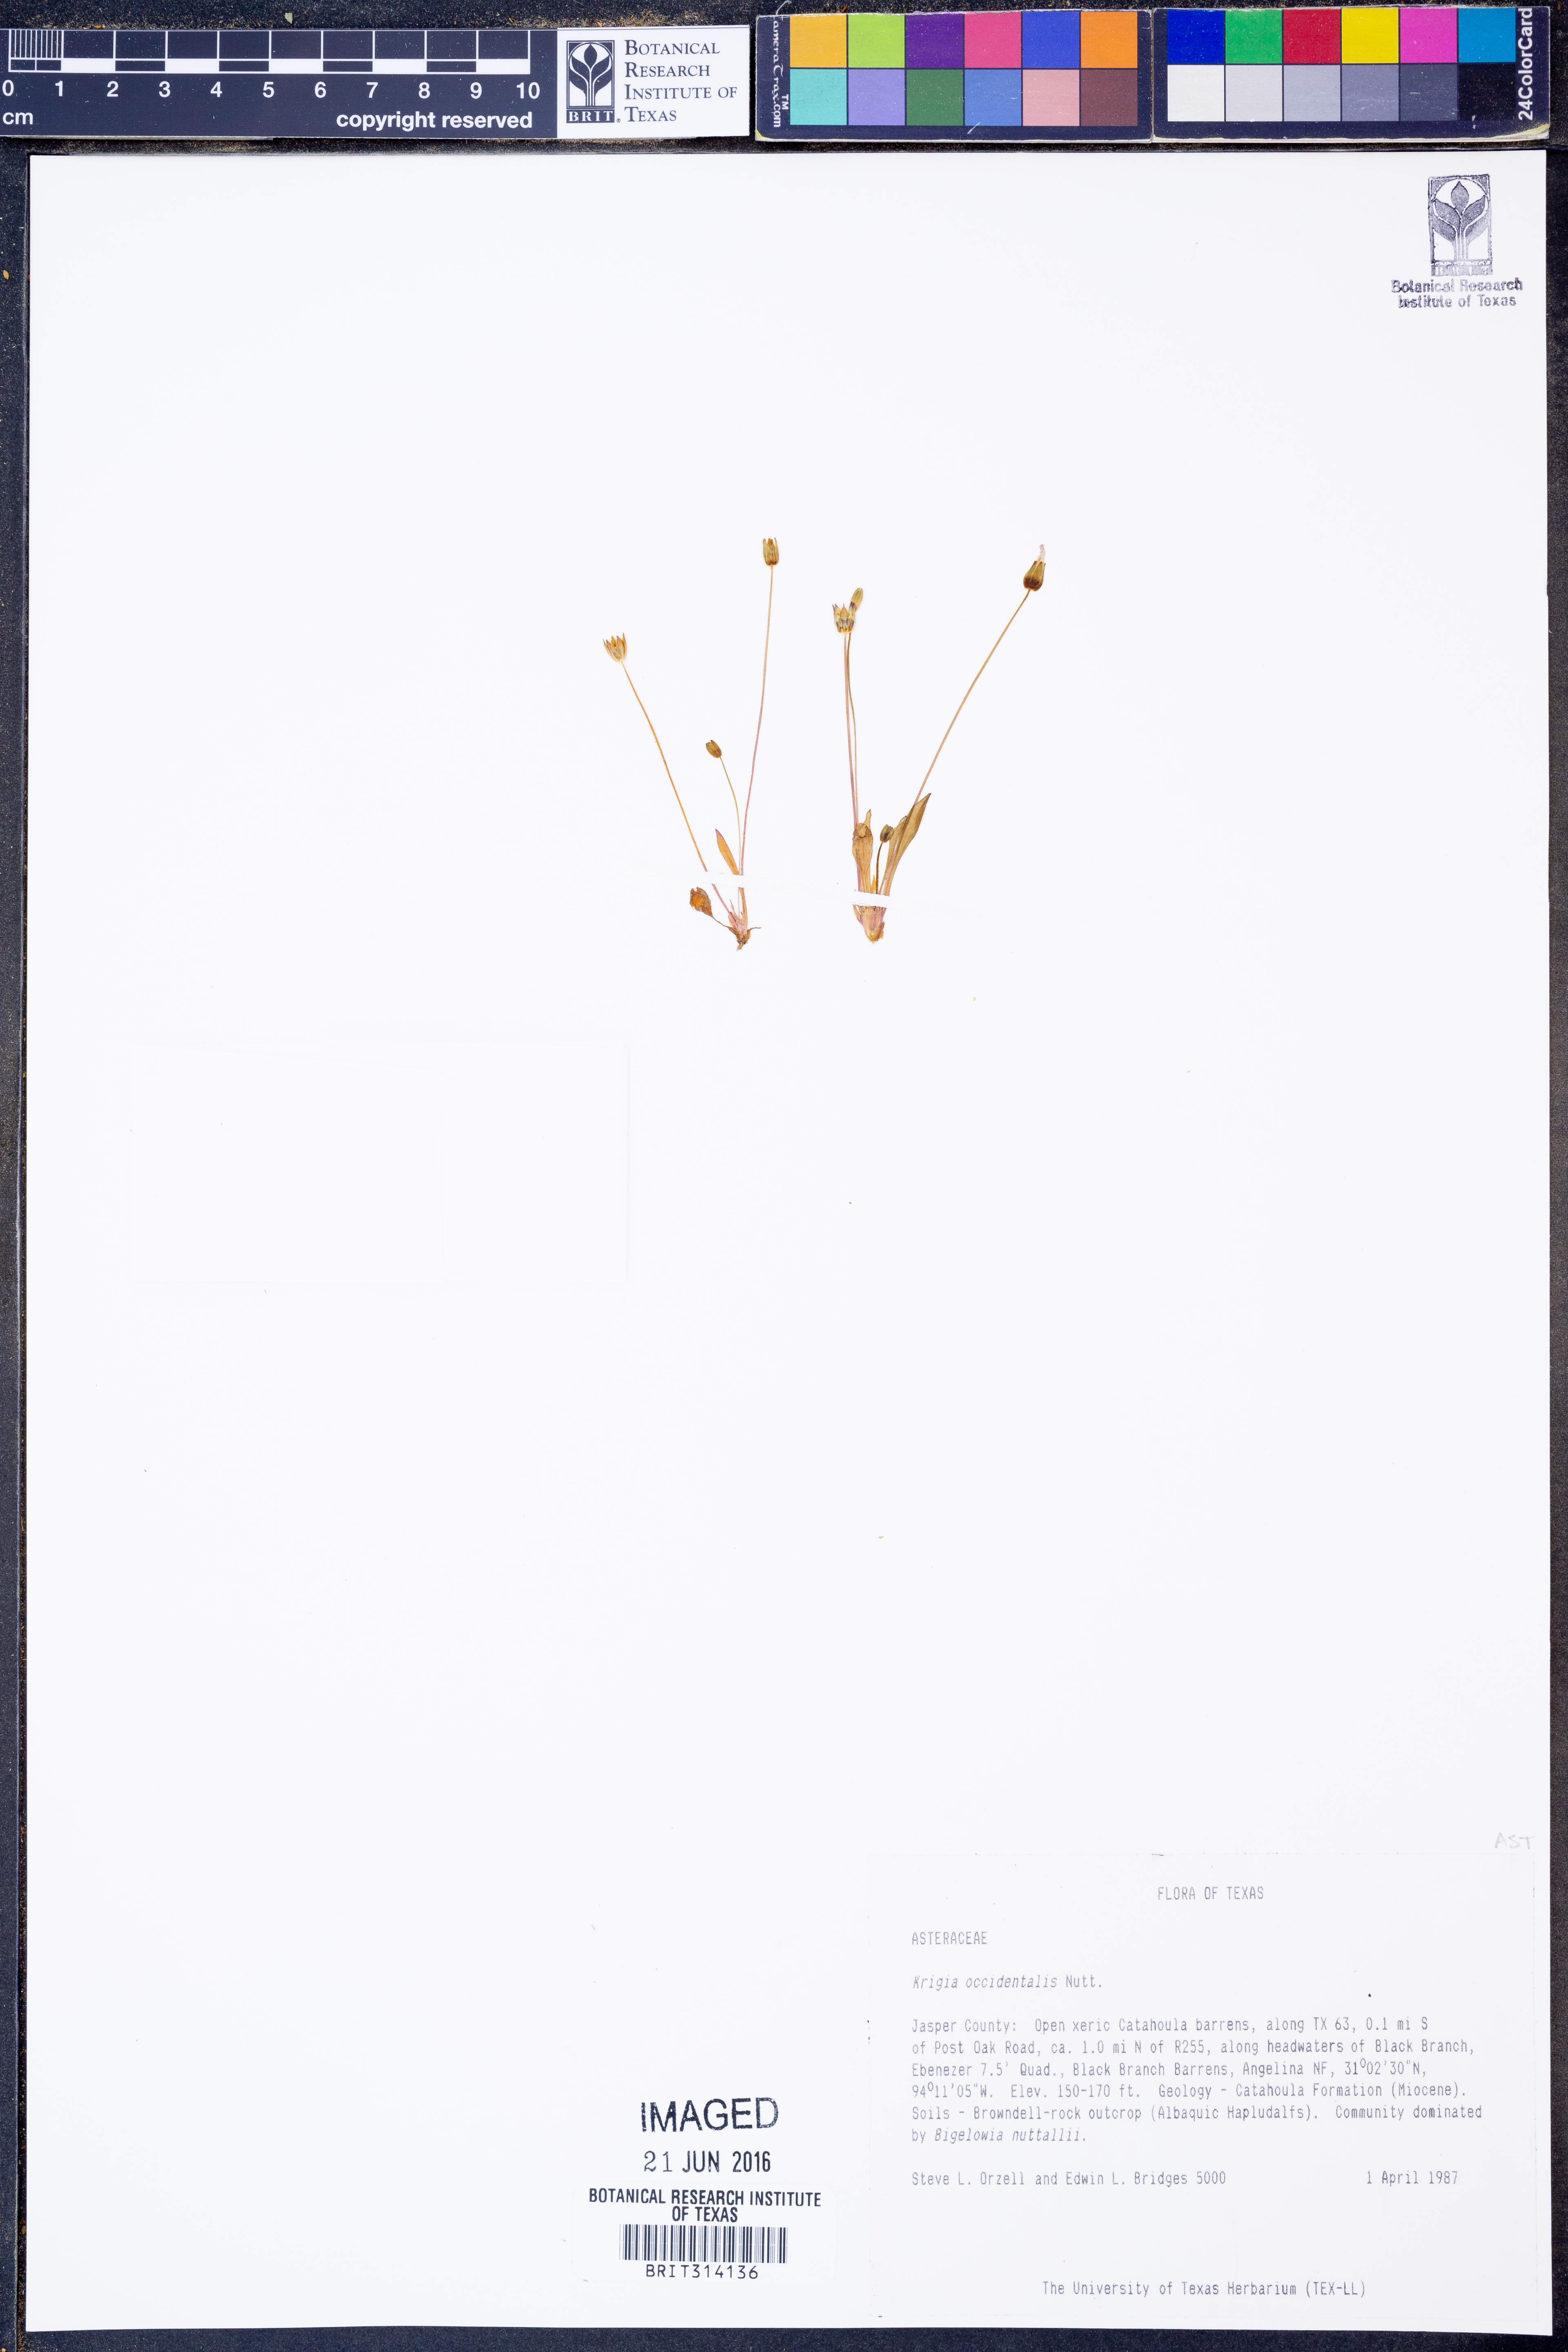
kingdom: Plantae
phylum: Tracheophyta
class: Magnoliopsida
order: Asterales
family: Asteraceae
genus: Krigia
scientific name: Krigia occidentalis
